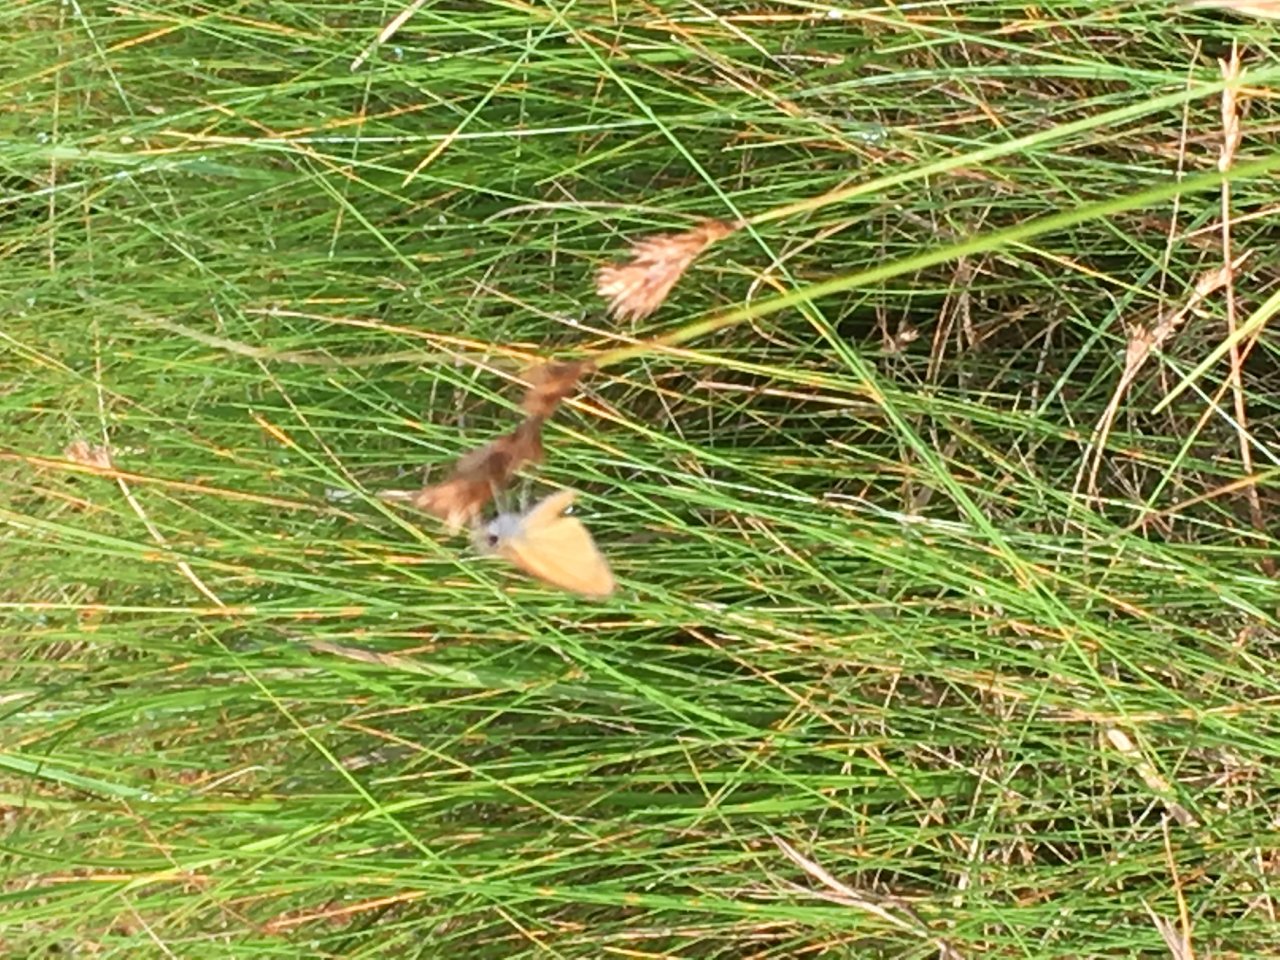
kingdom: Animalia
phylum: Arthropoda
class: Insecta
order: Lepidoptera
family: Hesperiidae
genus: Ancyloxypha
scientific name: Ancyloxypha numitor
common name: Least Skipper
